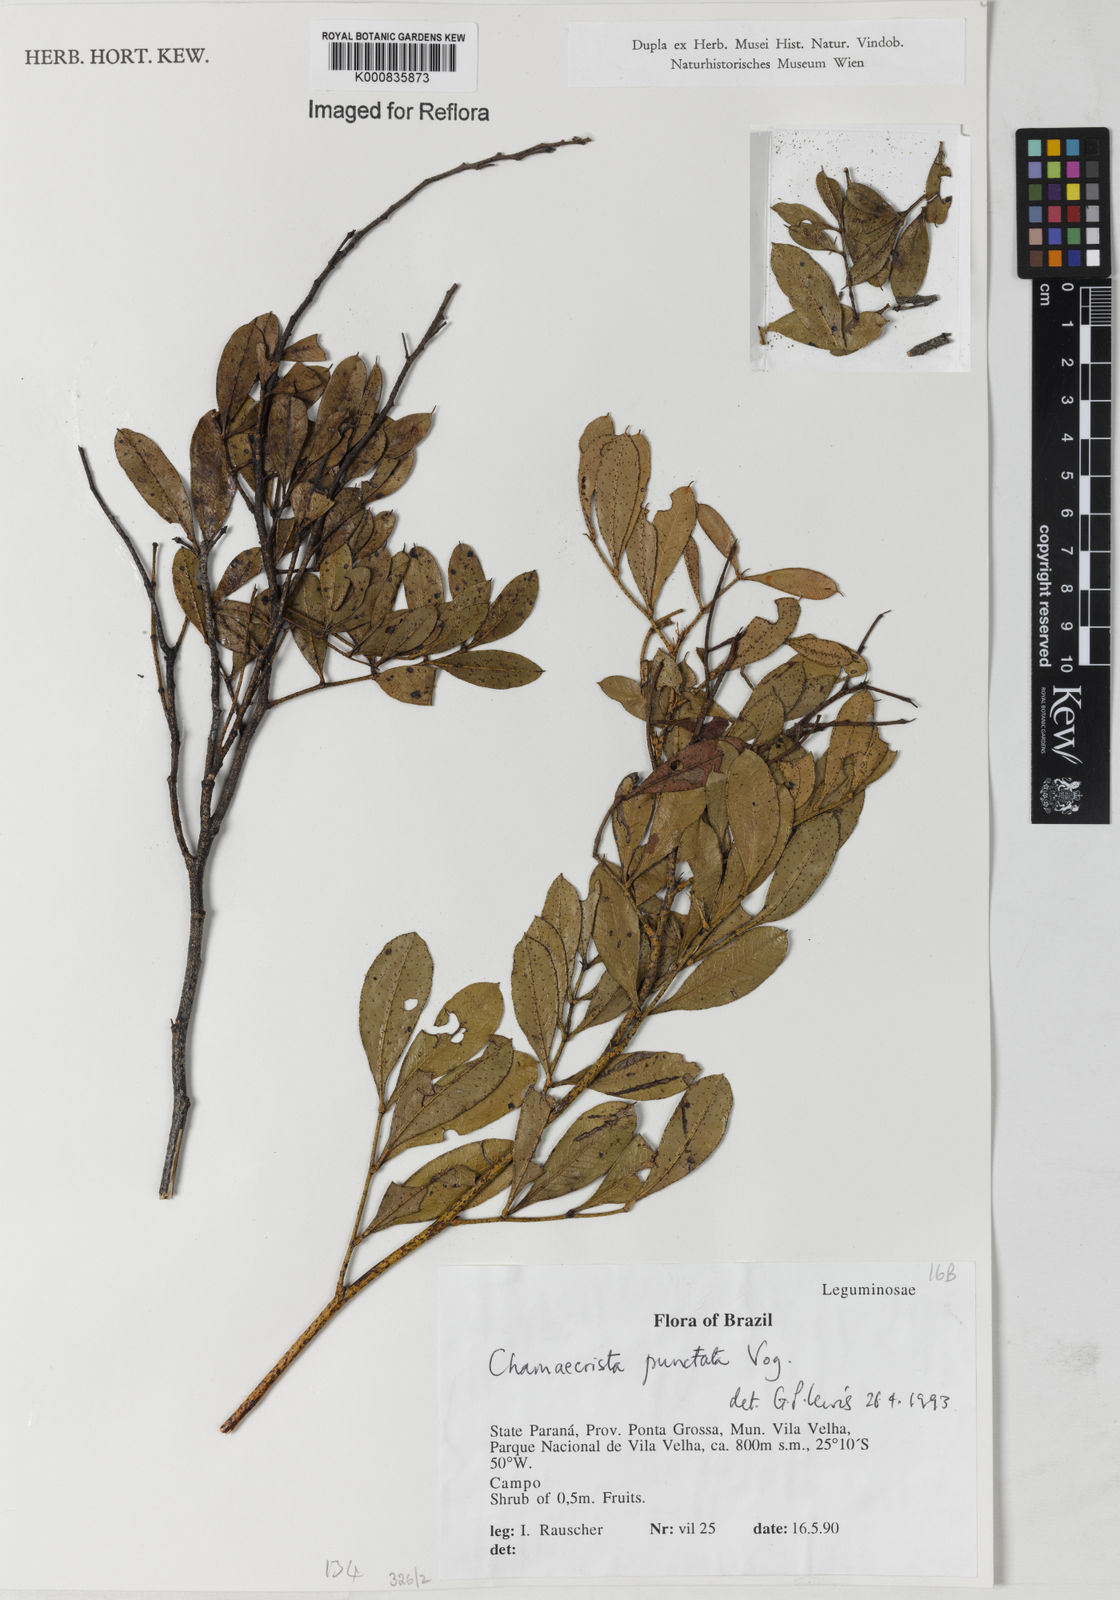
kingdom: Plantae
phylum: Tracheophyta
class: Magnoliopsida
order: Fabales
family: Fabaceae
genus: Chamaecrista
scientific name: Chamaecrista punctata
